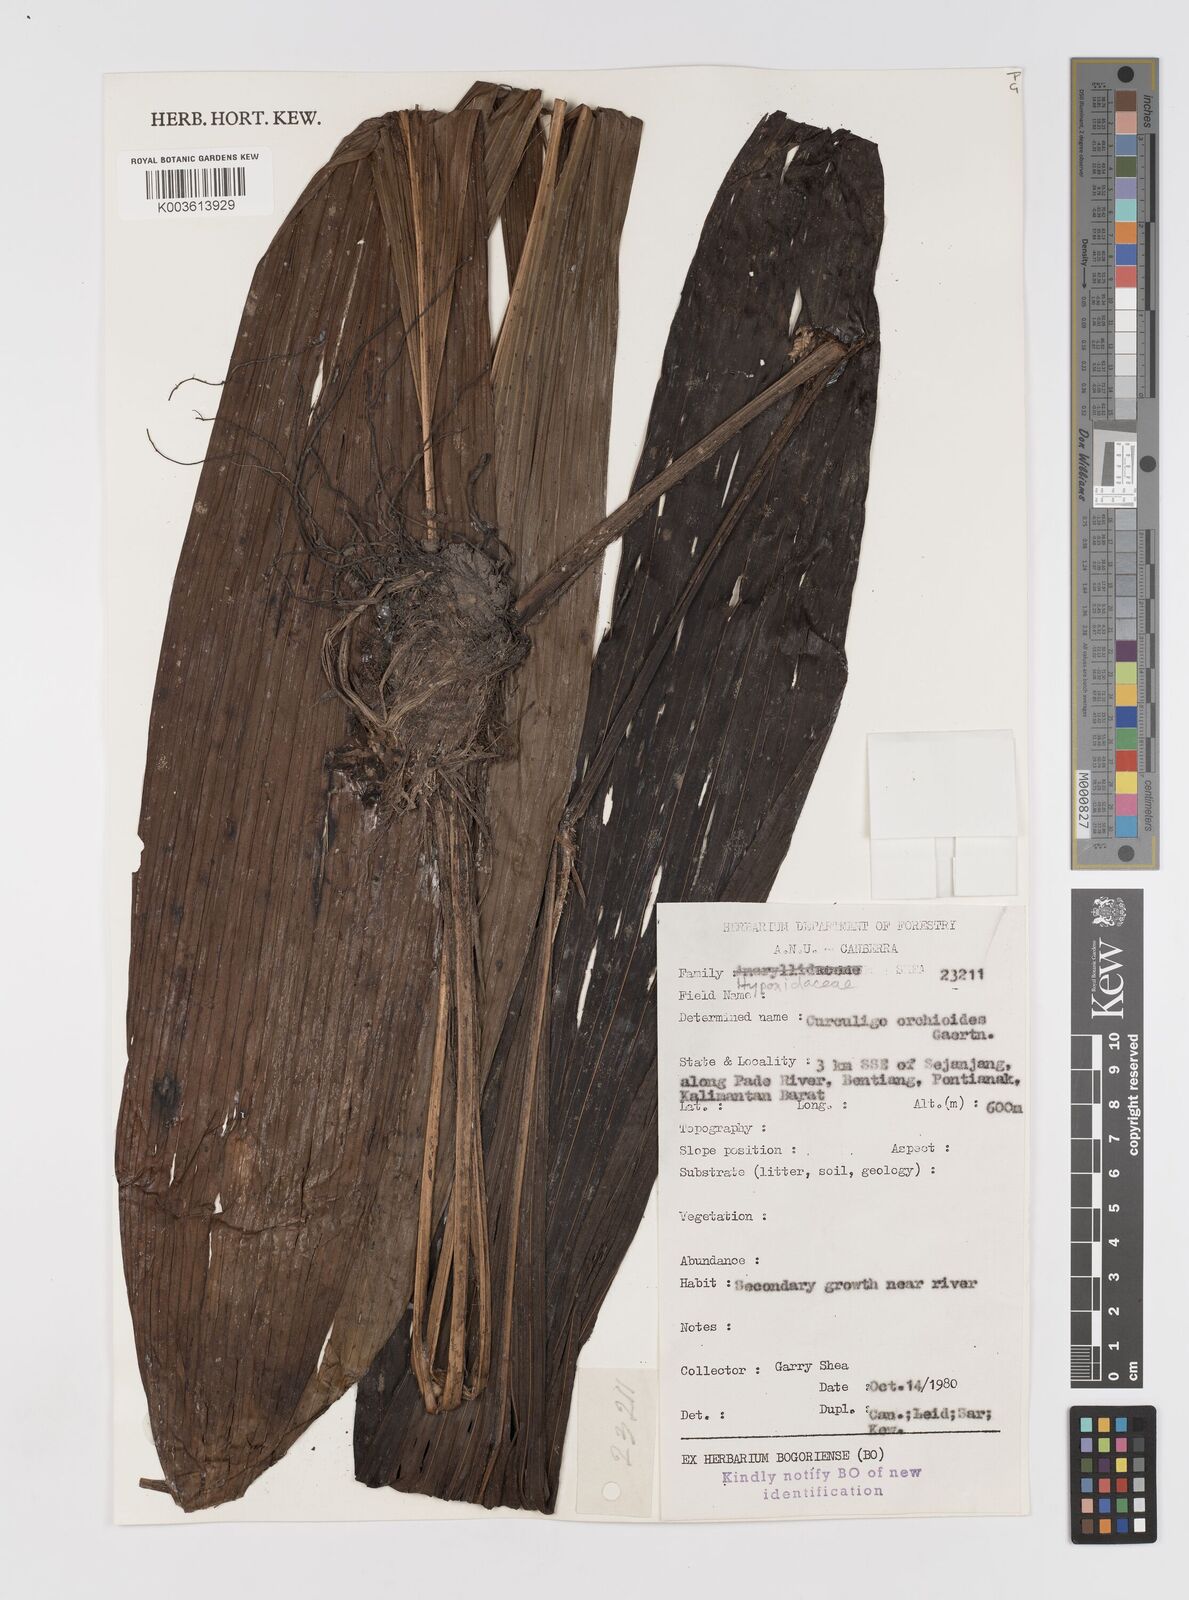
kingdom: Plantae
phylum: Tracheophyta
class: Liliopsida
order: Asparagales
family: Hypoxidaceae
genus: Curculigo
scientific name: Curculigo capitulata
